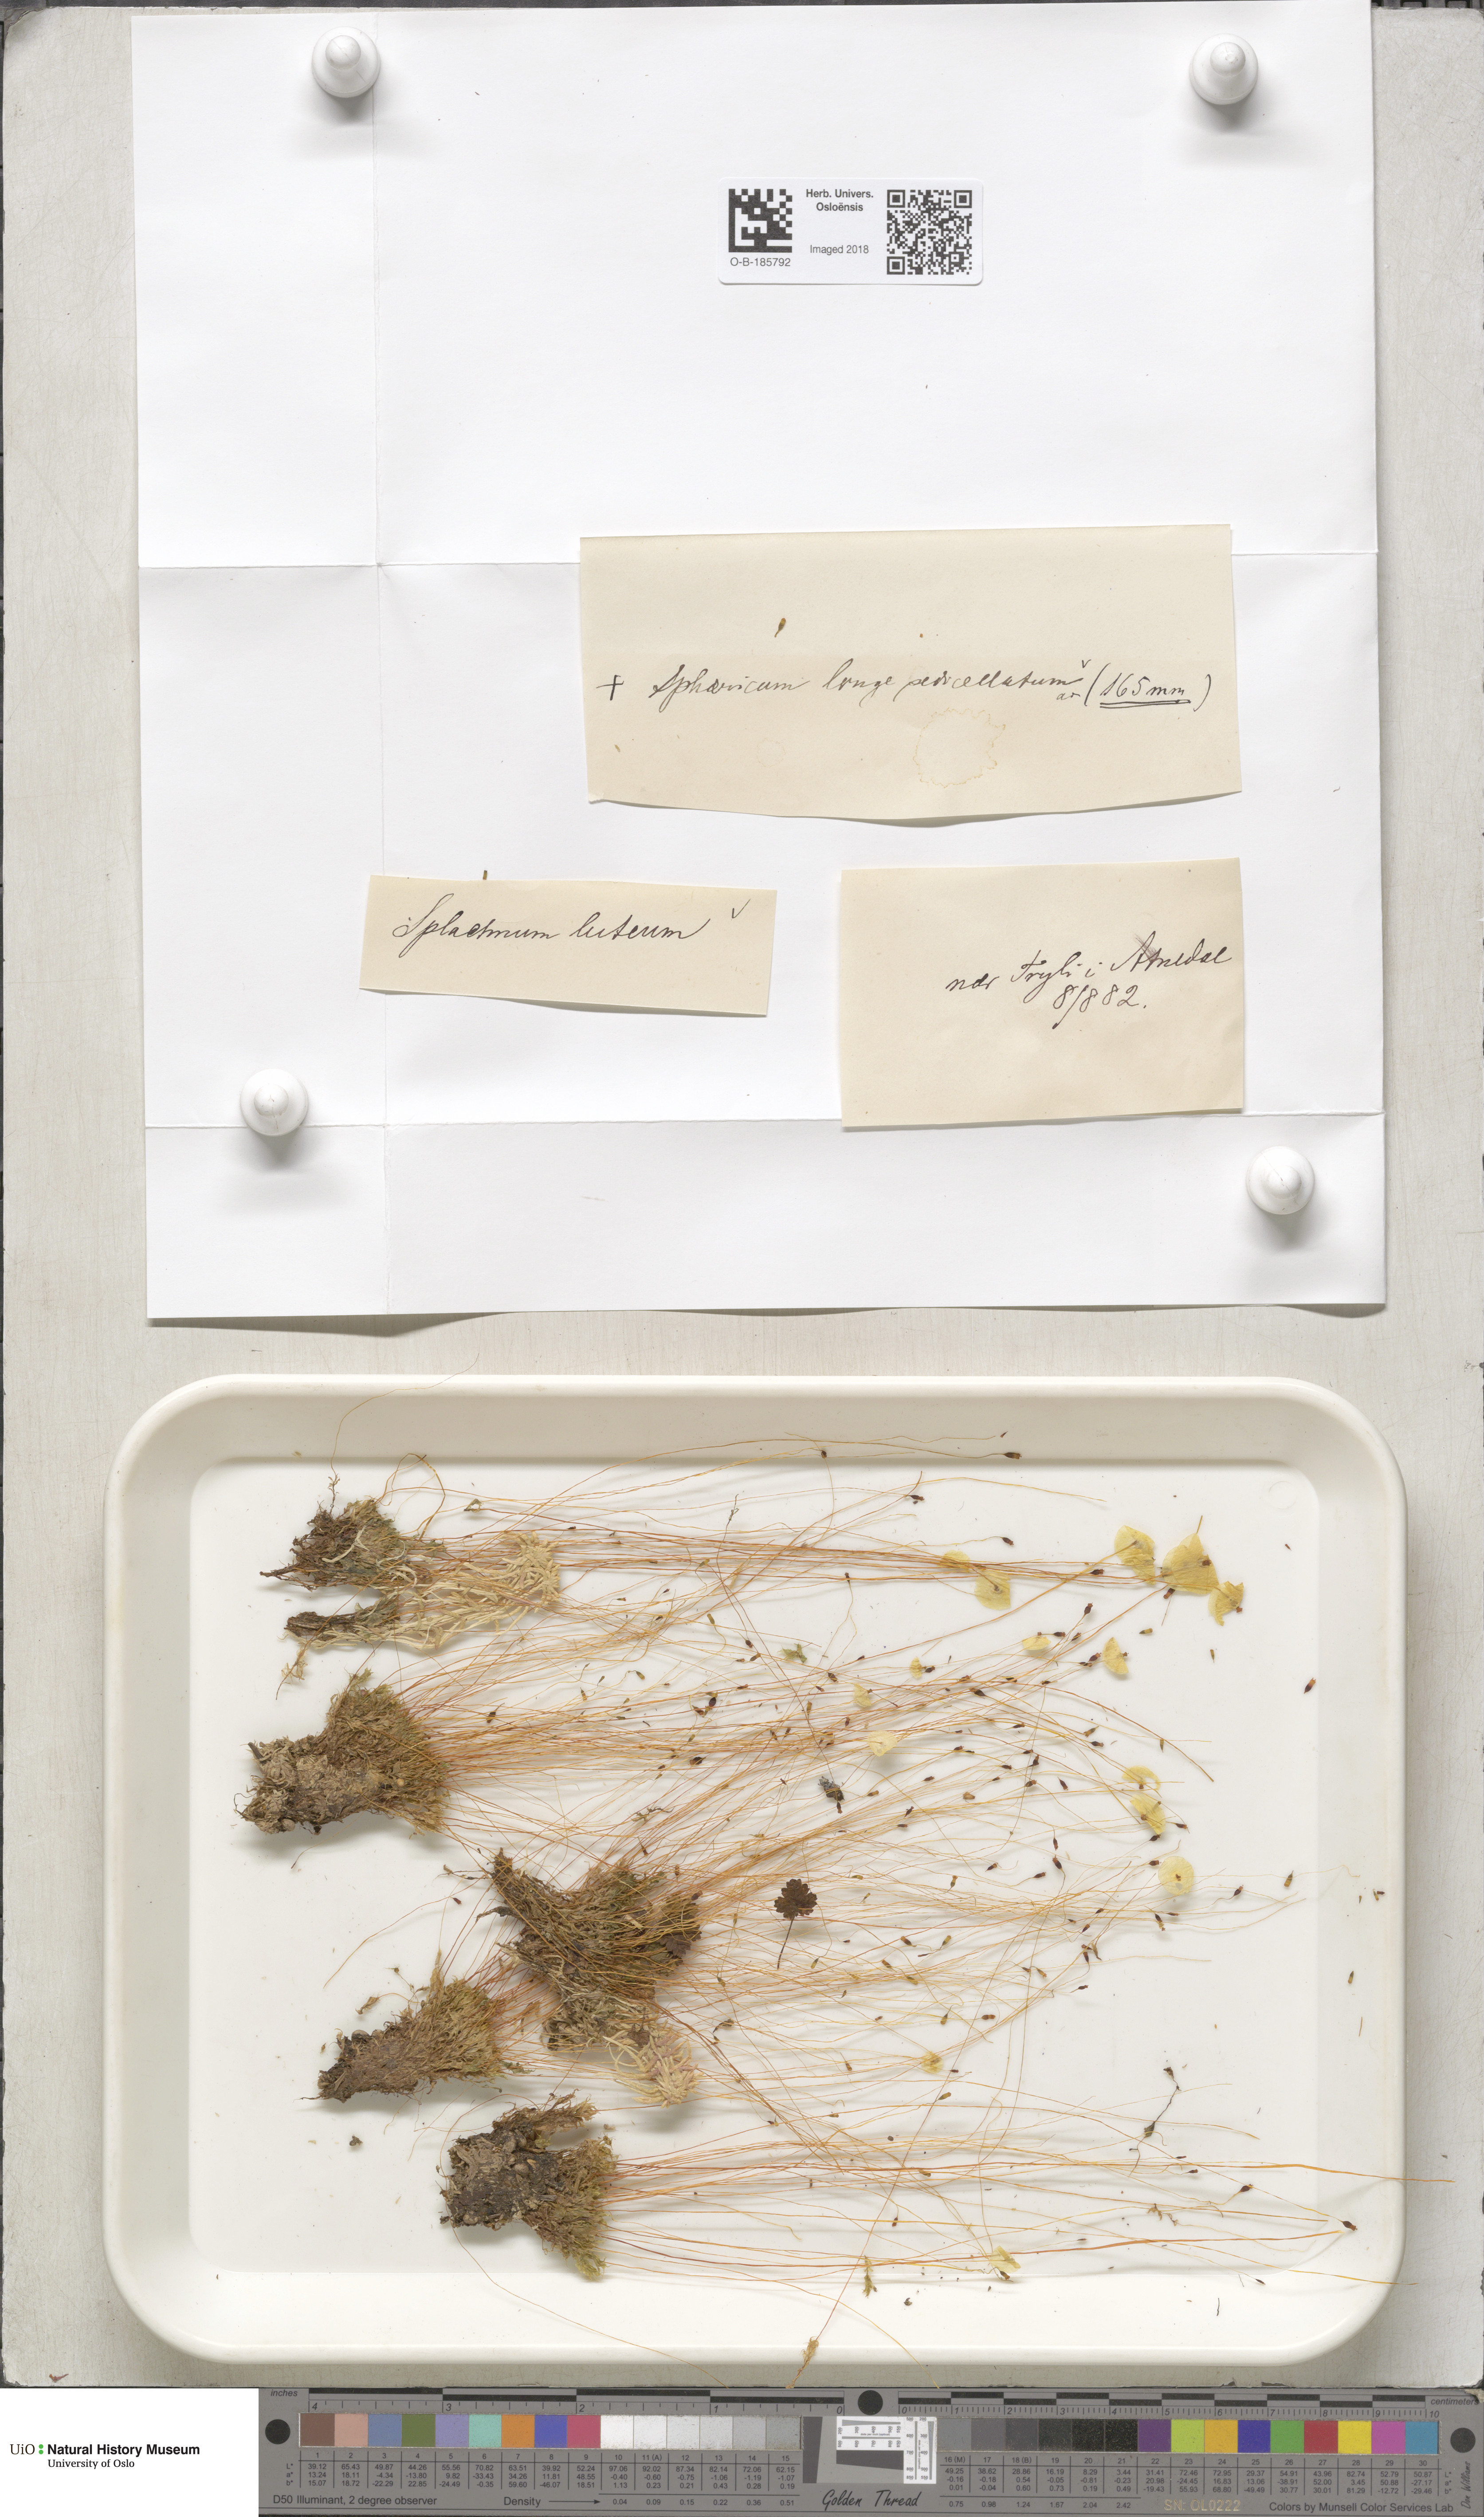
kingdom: Plantae
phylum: Bryophyta
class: Bryopsida
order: Splachnales
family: Splachnaceae
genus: Splachnum
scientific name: Splachnum luteum
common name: Yellow dung moss
